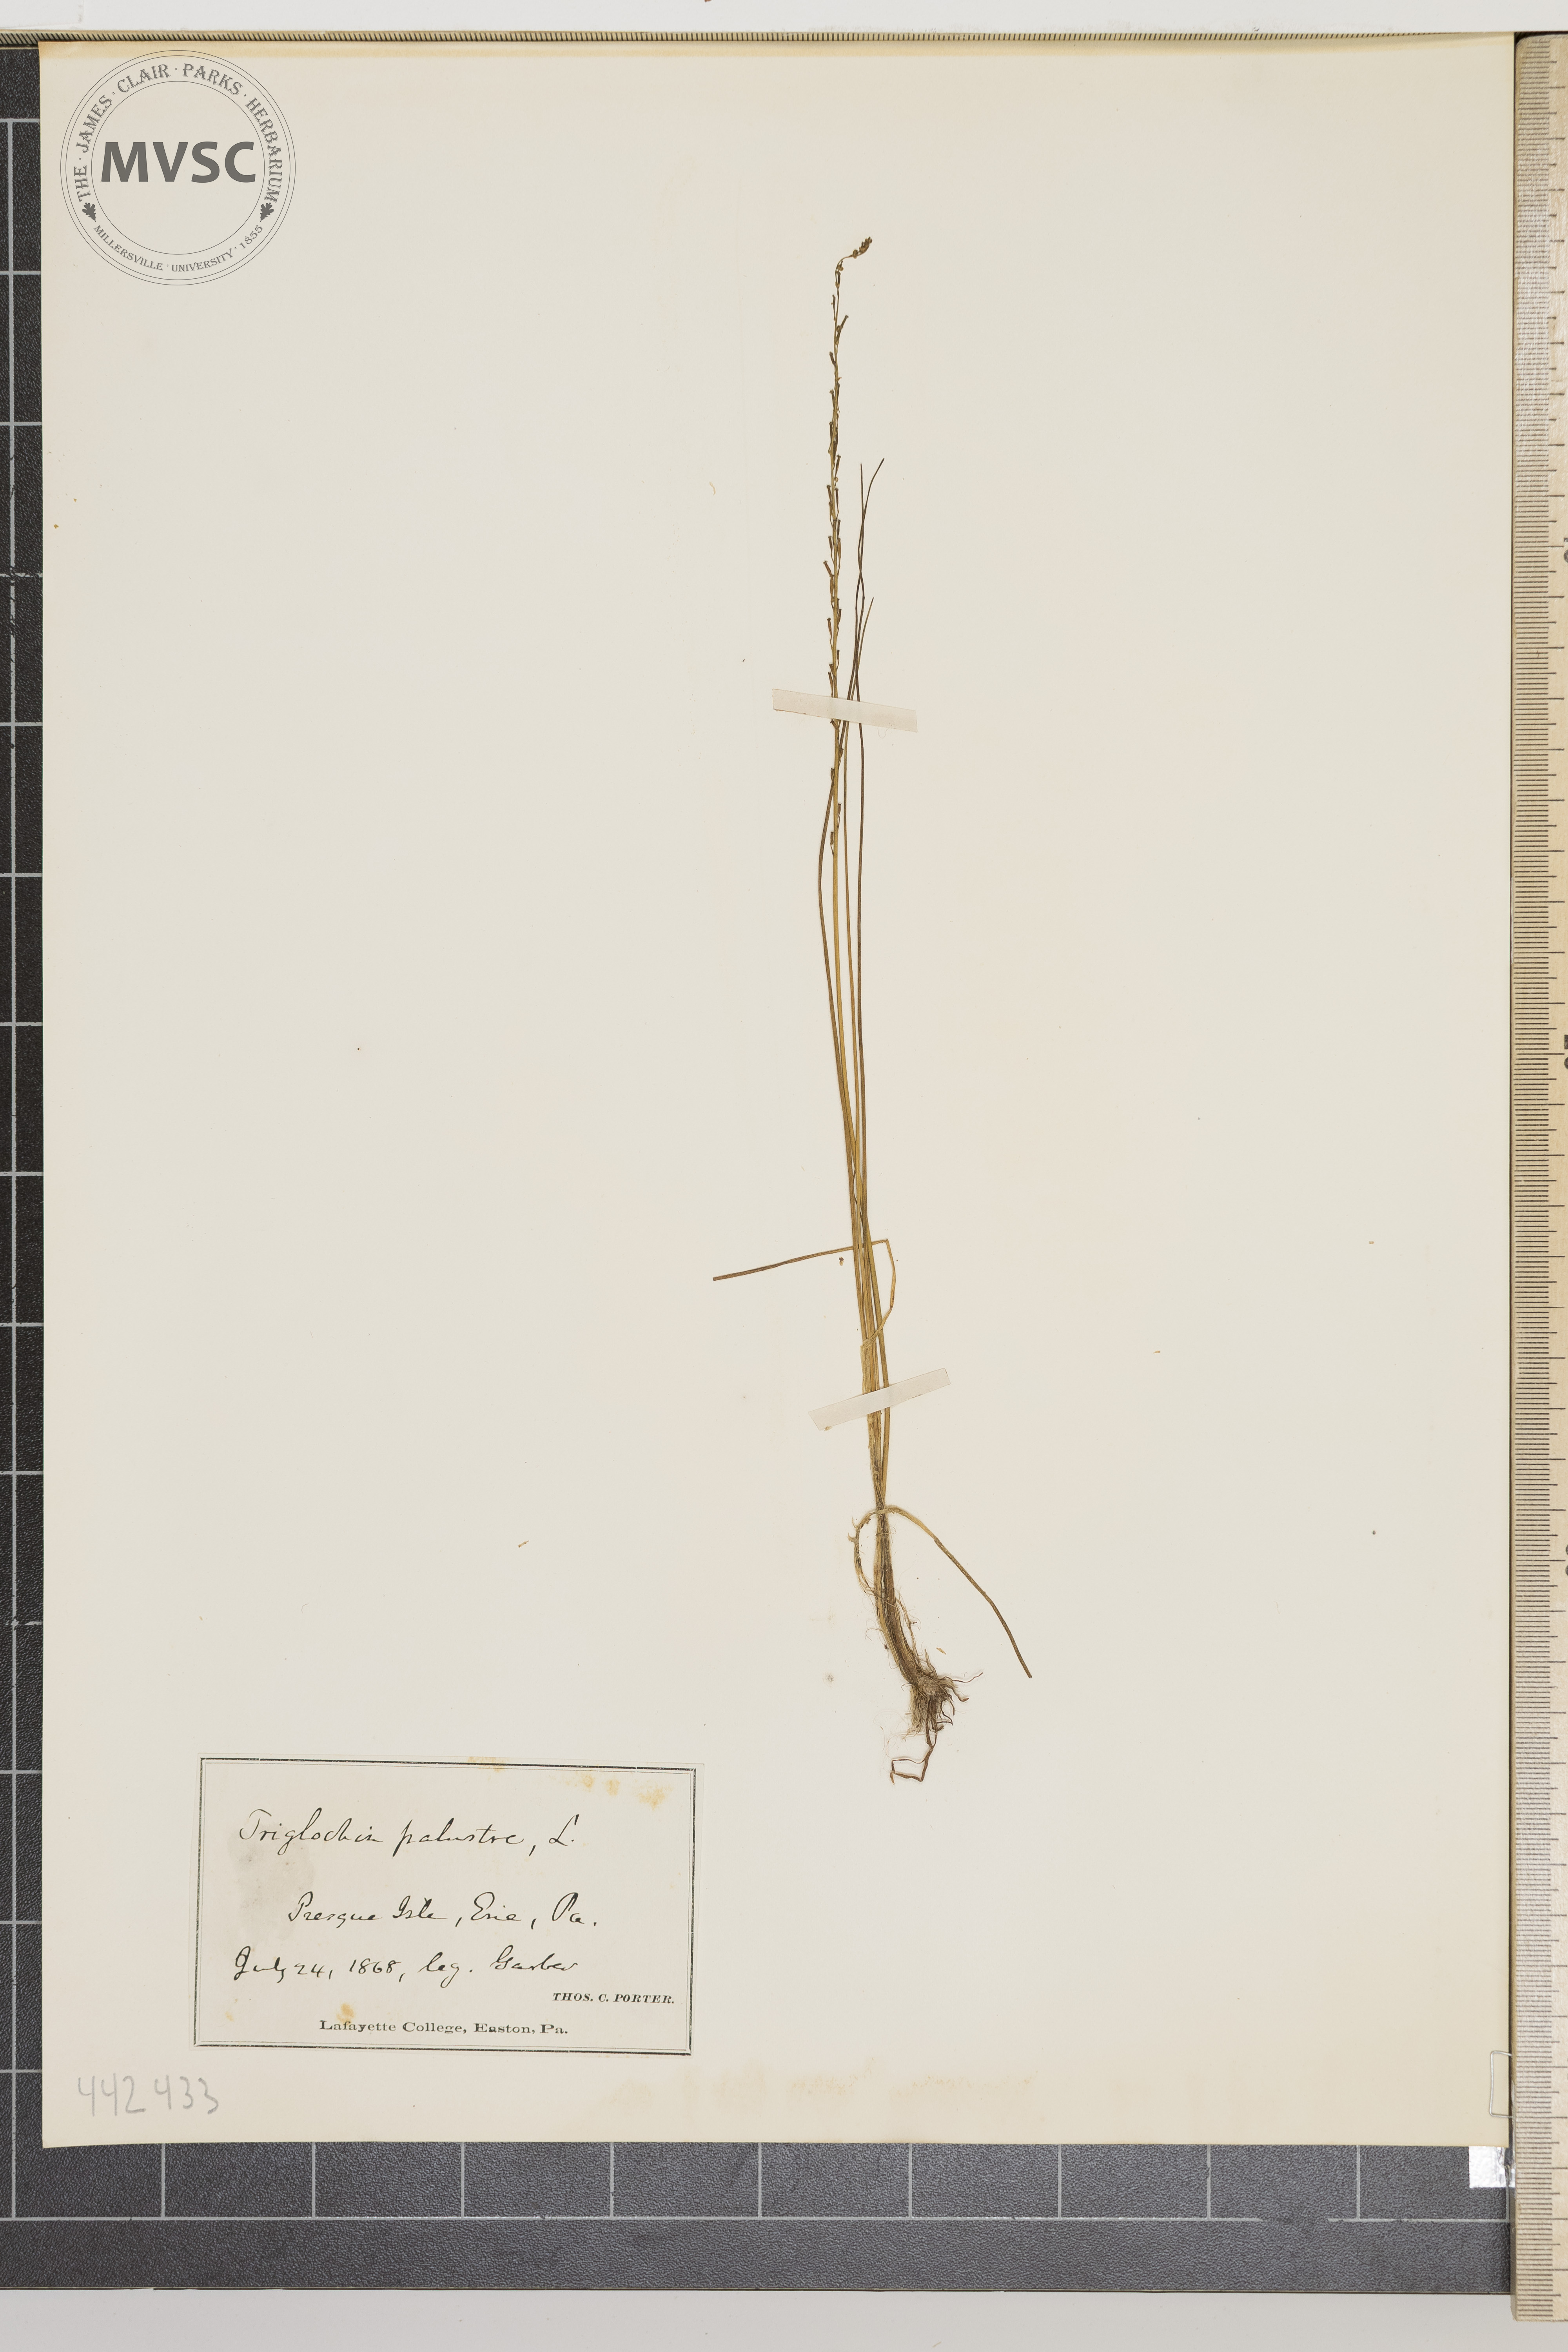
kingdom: Plantae
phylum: Tracheophyta
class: Liliopsida
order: Alismatales
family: Juncaginaceae
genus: Triglochin
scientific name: Triglochin palustris
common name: Marsh arrowgrass
